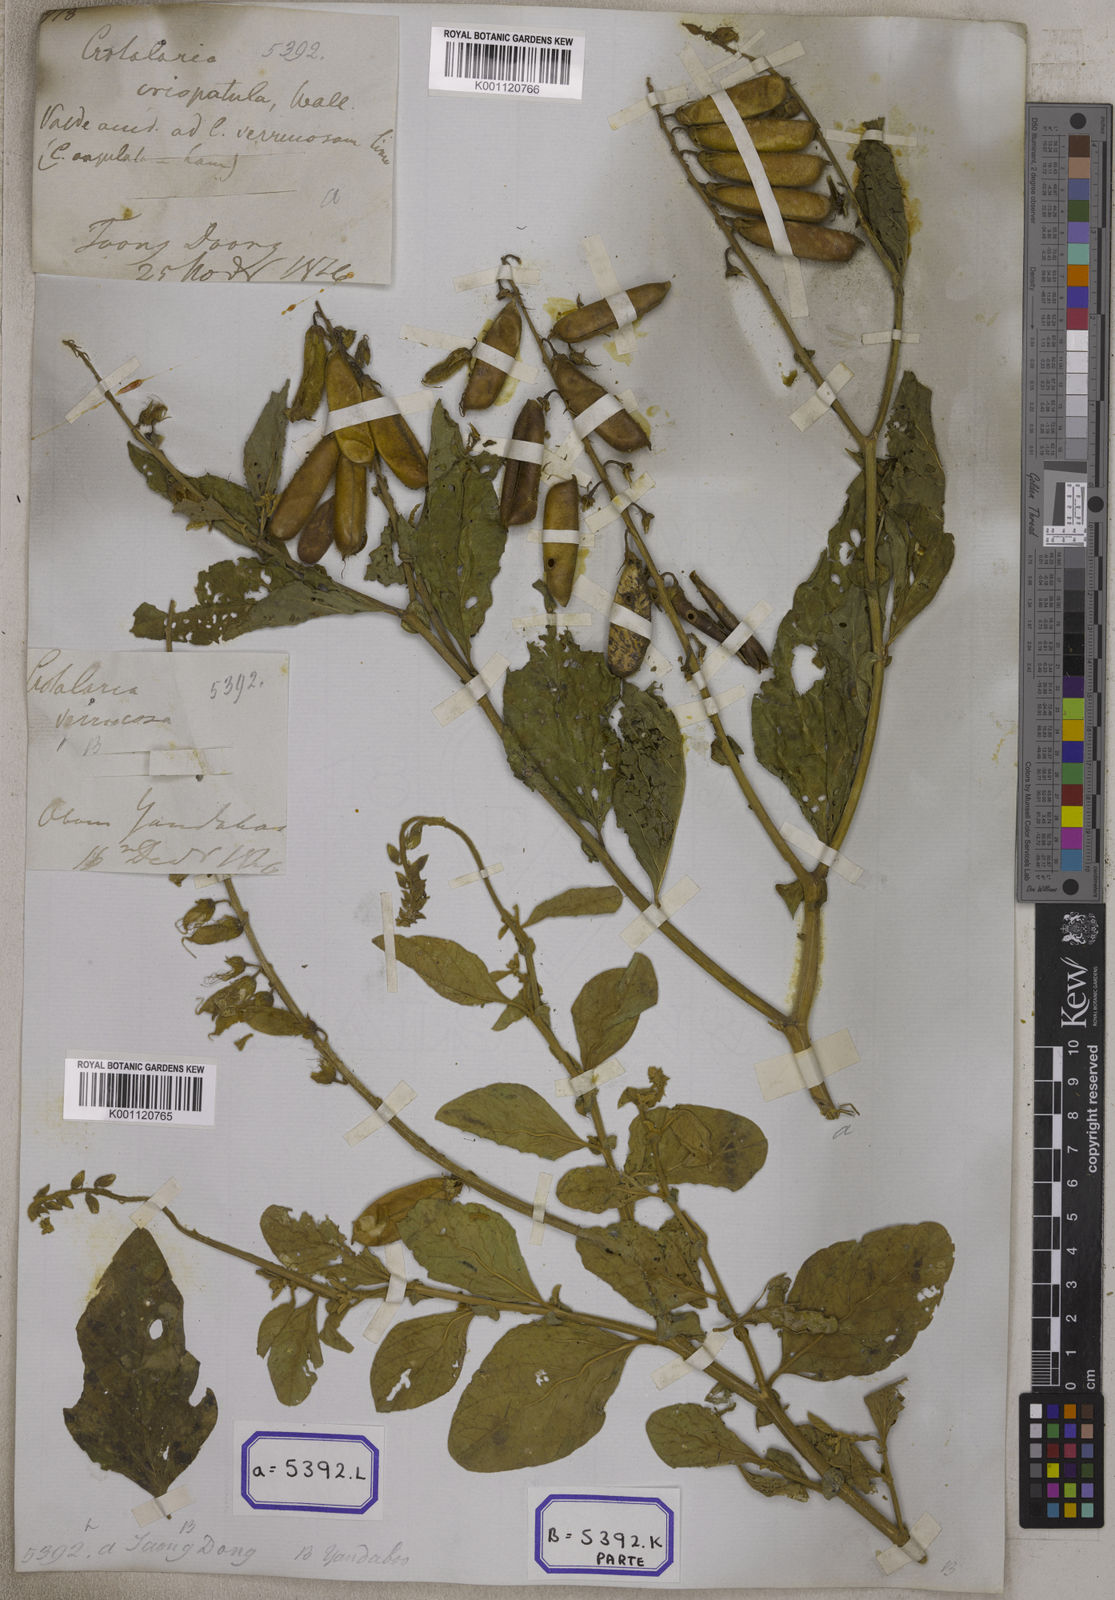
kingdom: Plantae
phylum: Tracheophyta
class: Magnoliopsida
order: Fabales
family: Fabaceae
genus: Crotalaria
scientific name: Crotalaria verrucosa
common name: Blue rattlesnake
